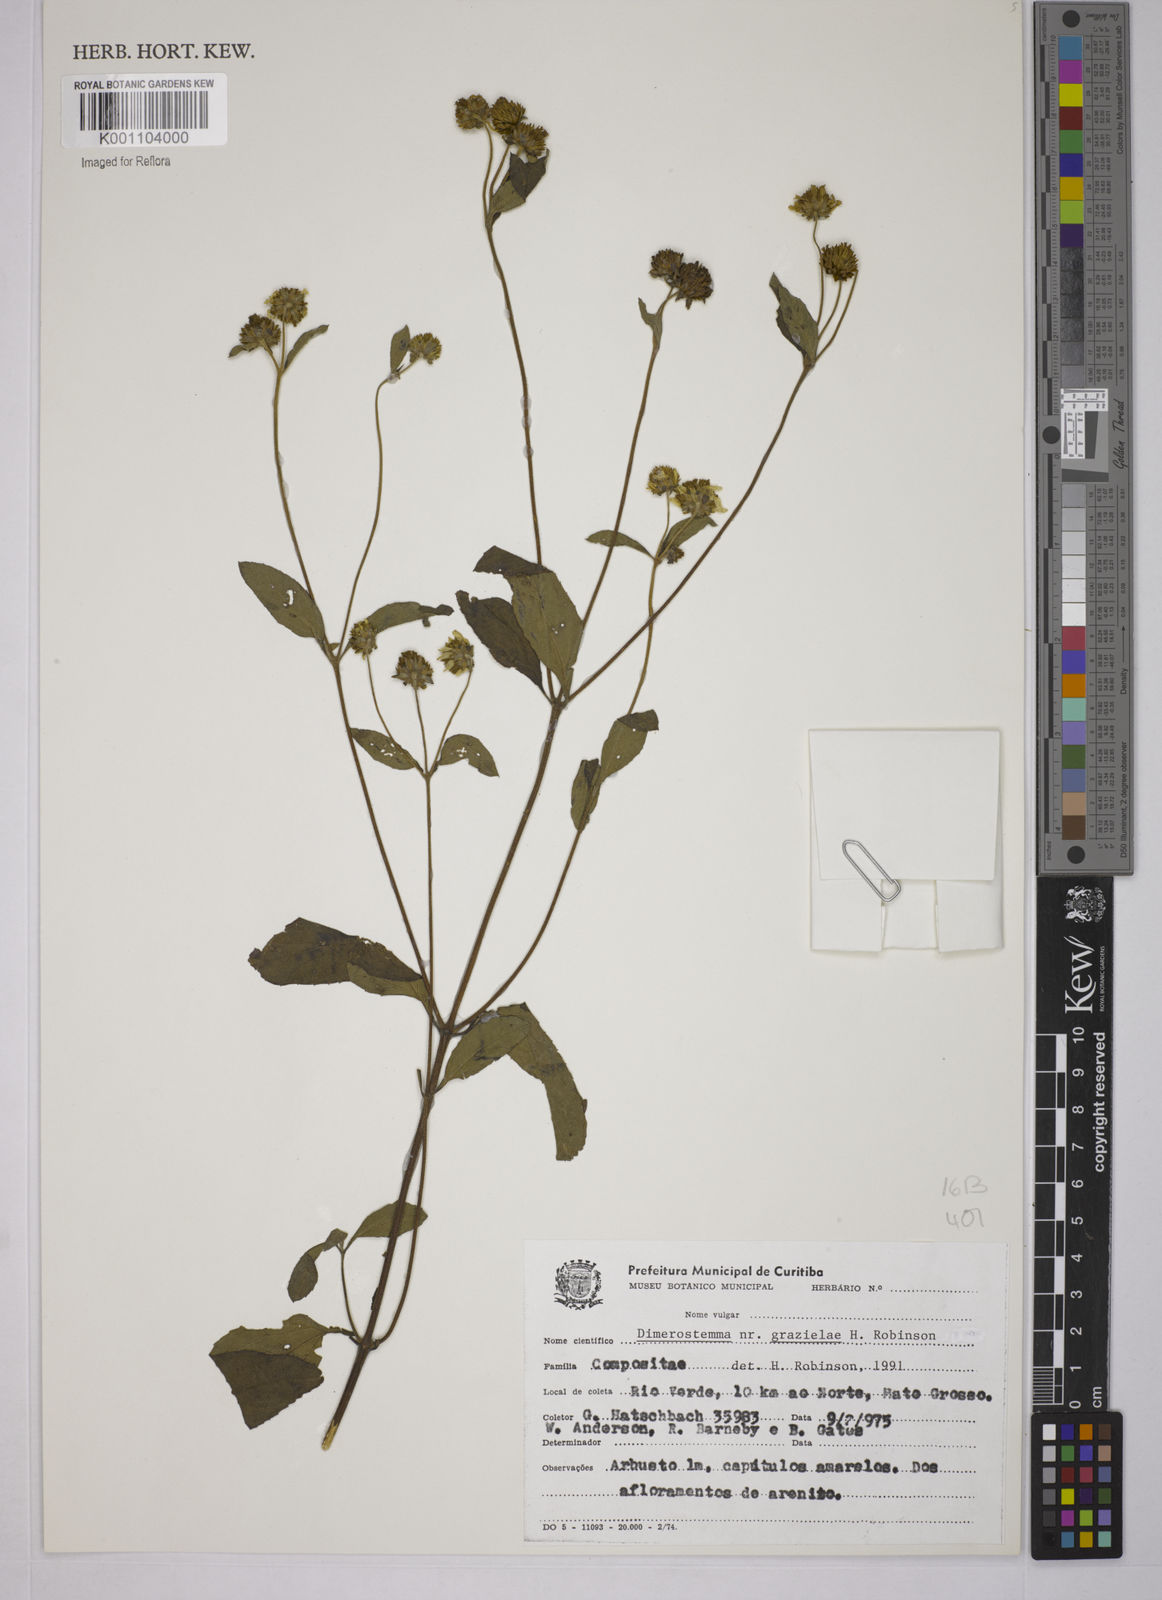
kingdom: Plantae
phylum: Tracheophyta
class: Magnoliopsida
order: Asterales
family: Asteraceae
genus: Dimerostemma
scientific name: Dimerostemma grazielae
